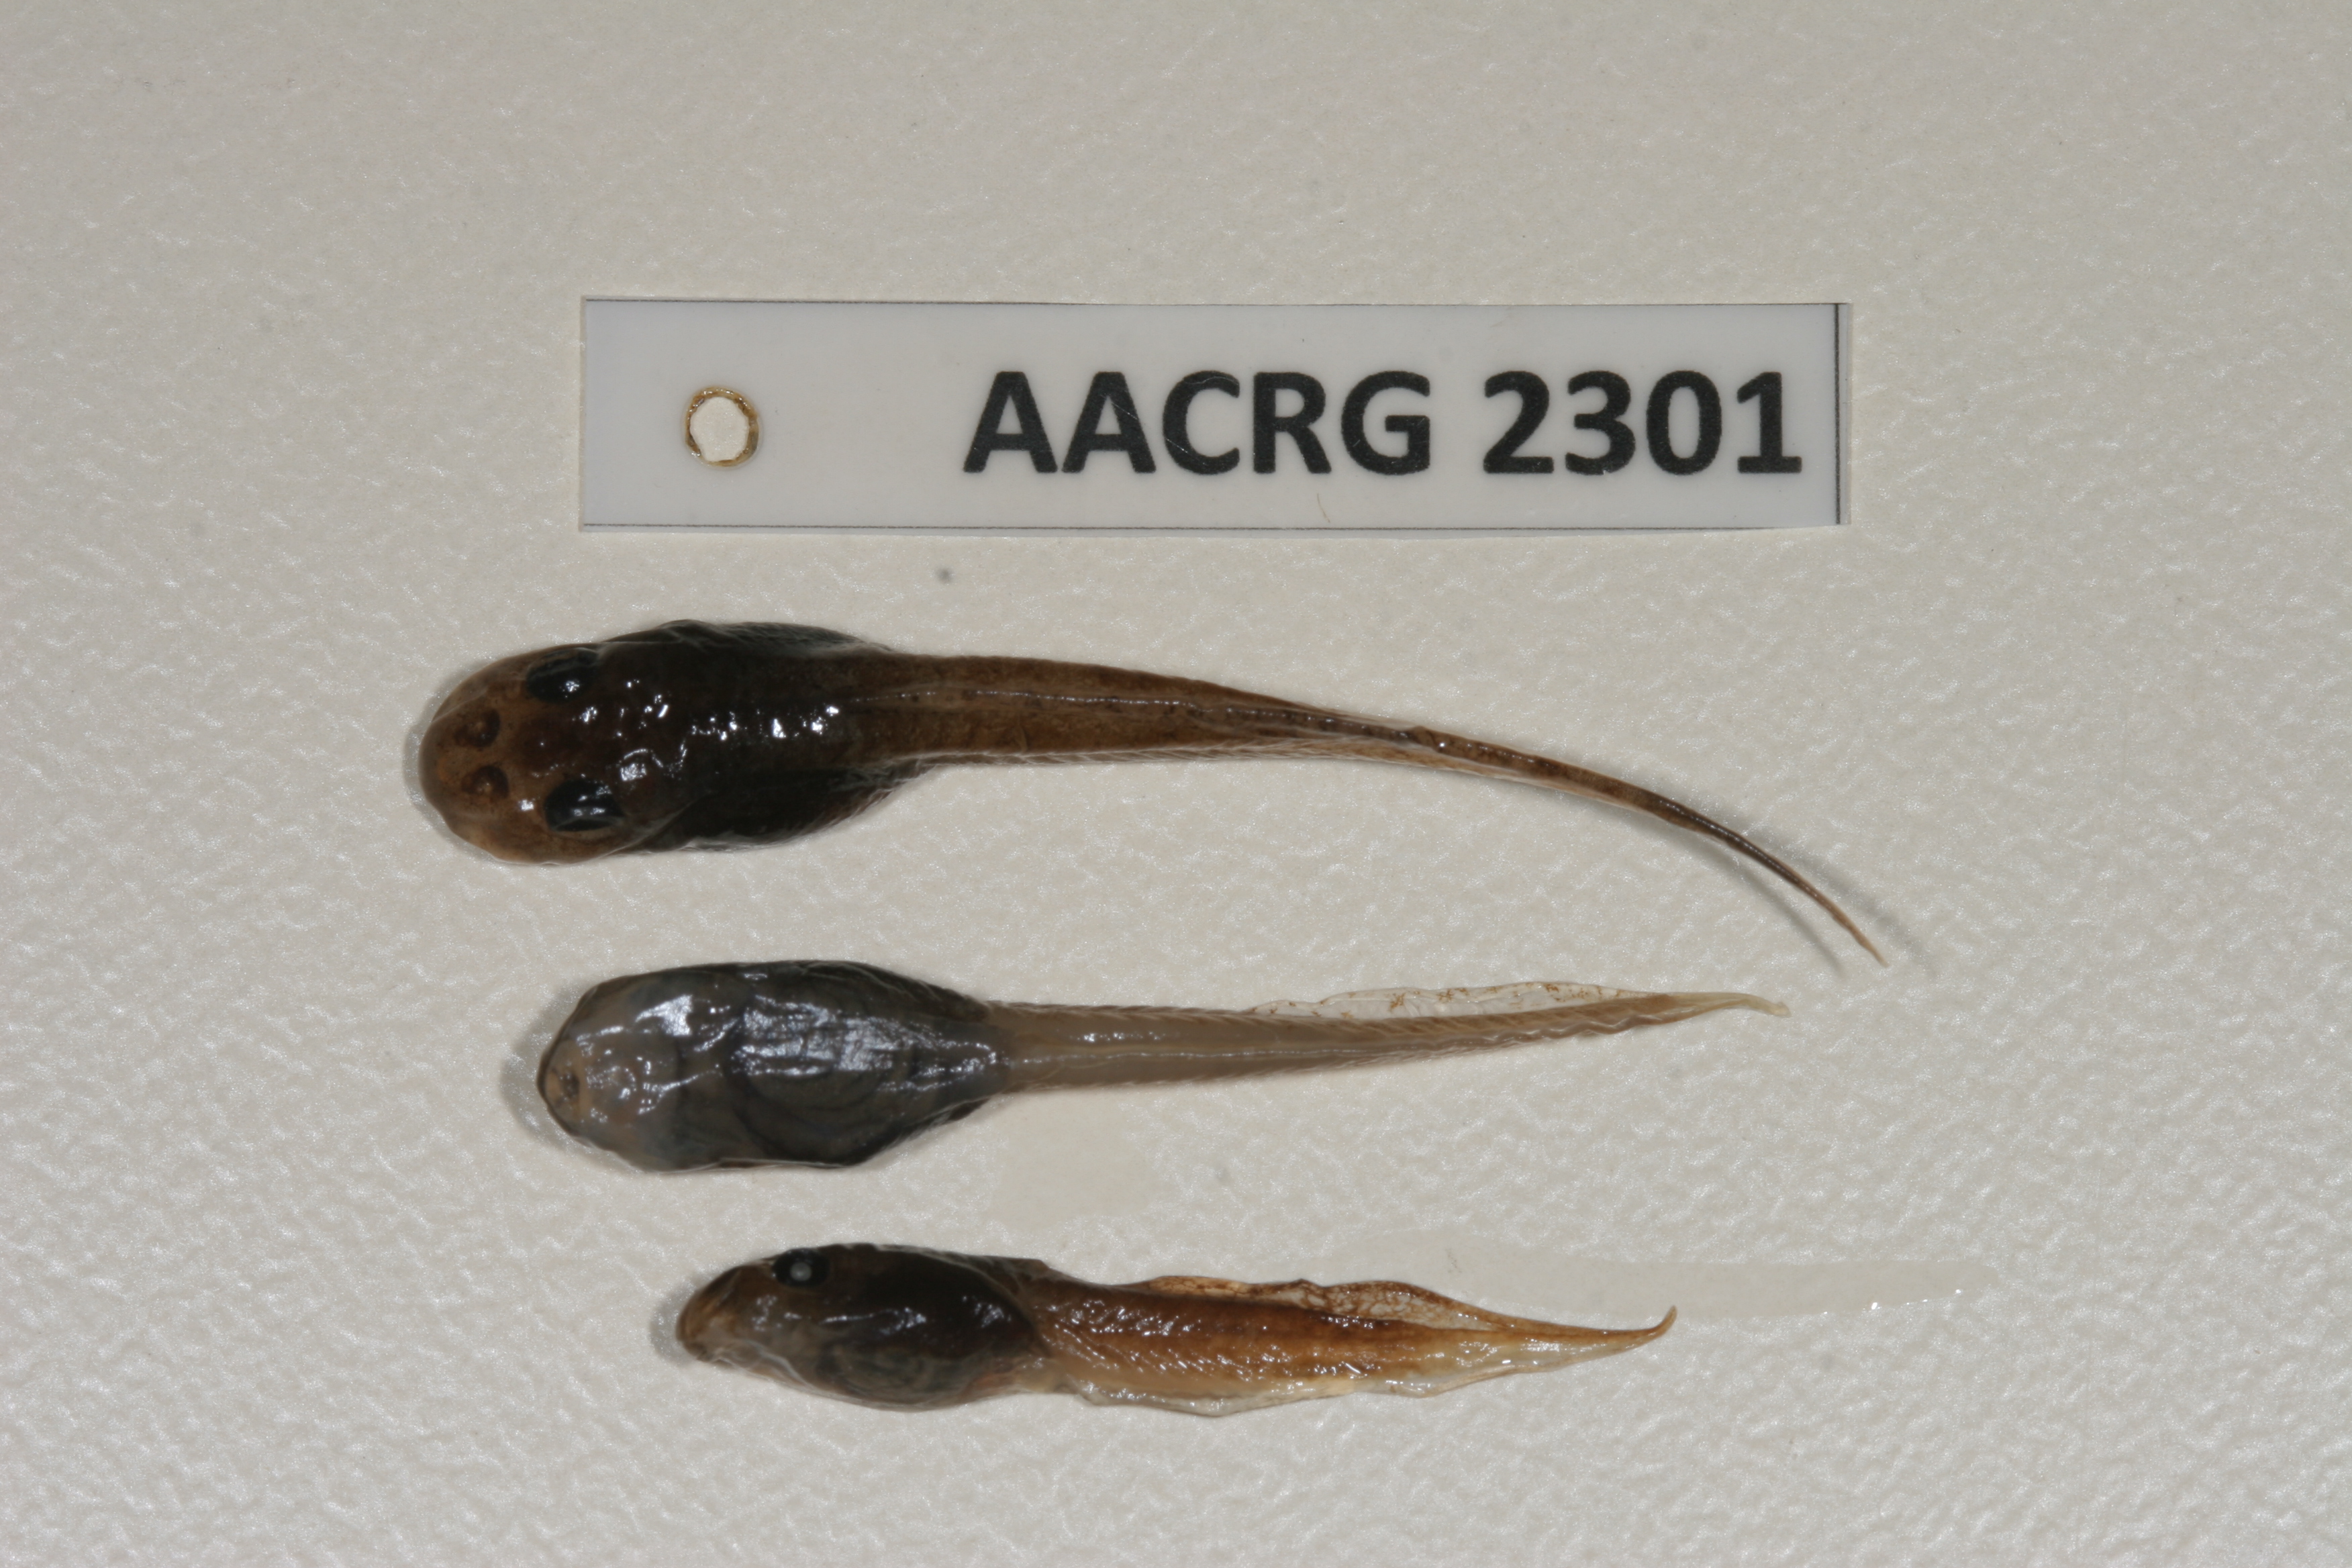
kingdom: Animalia
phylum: Chordata
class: Amphibia
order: Anura
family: Pyxicephalidae
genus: Strongylopus
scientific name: Strongylopus wageri
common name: Wager's stream frog
